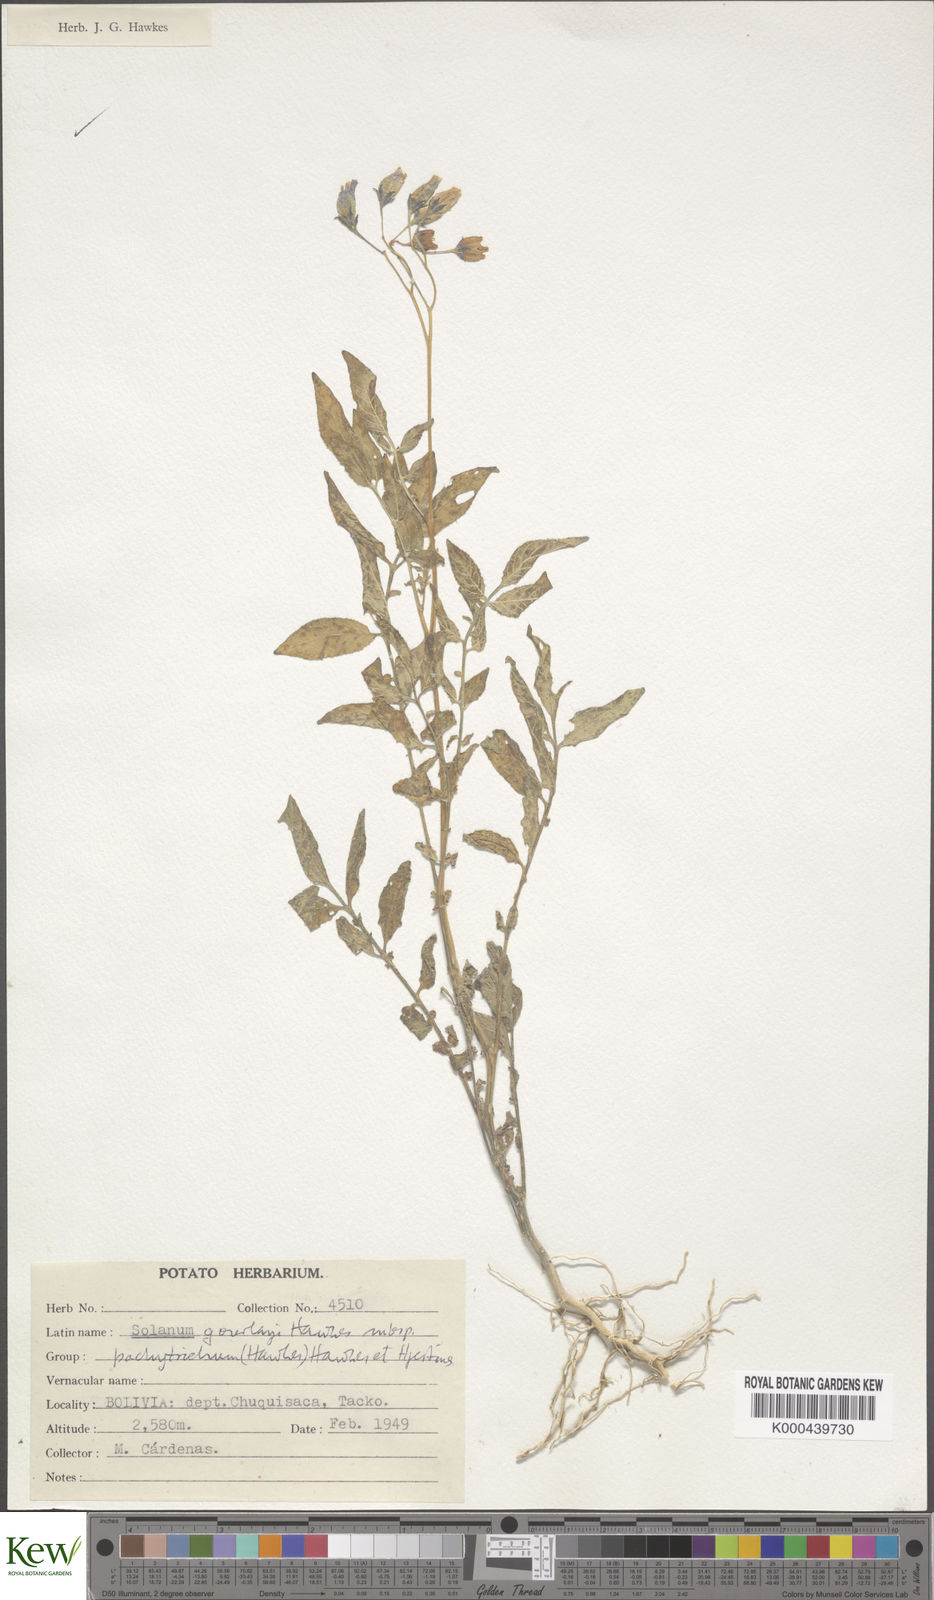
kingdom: Plantae
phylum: Tracheophyta
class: Magnoliopsida
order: Solanales
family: Solanaceae
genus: Solanum
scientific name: Solanum brevicaule
